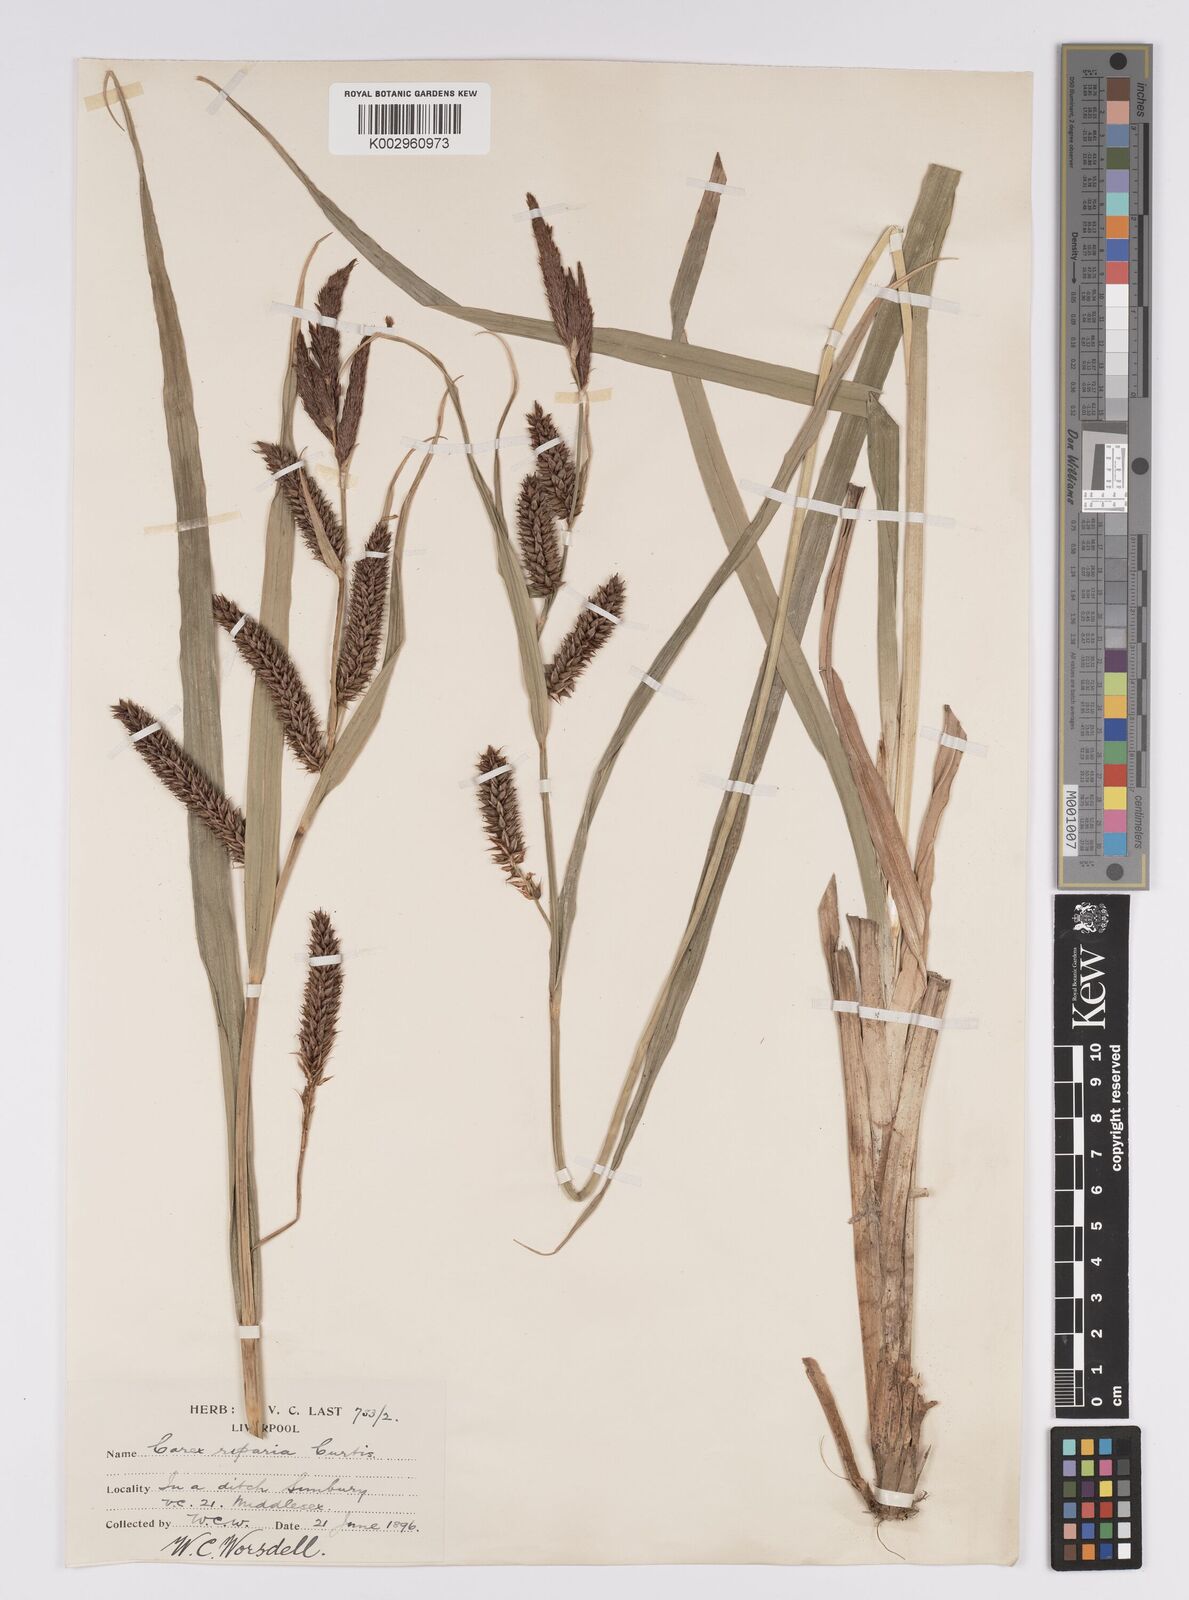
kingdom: Plantae
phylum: Tracheophyta
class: Liliopsida
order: Poales
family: Cyperaceae
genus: Carex
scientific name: Carex riparia
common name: Greater pond-sedge
